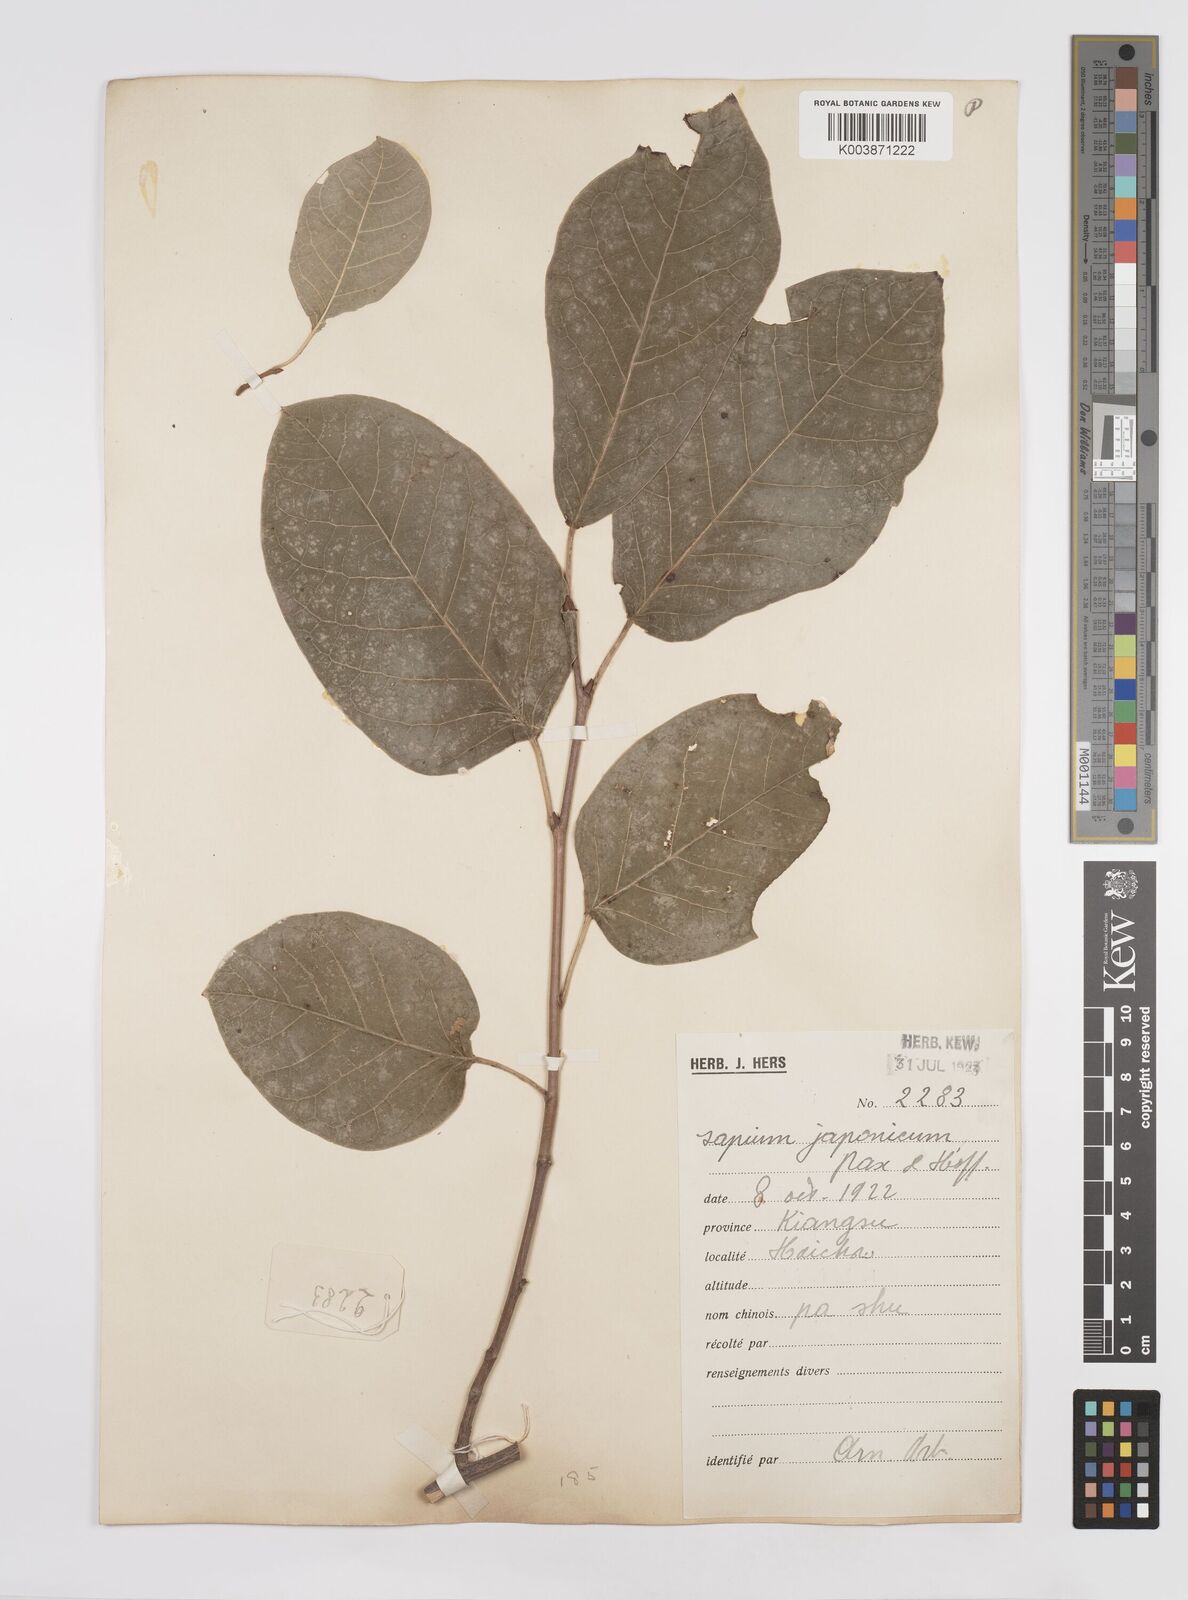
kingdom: Plantae
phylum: Tracheophyta
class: Magnoliopsida
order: Malpighiales
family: Euphorbiaceae
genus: Neoshirakia
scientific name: Neoshirakia japonica
